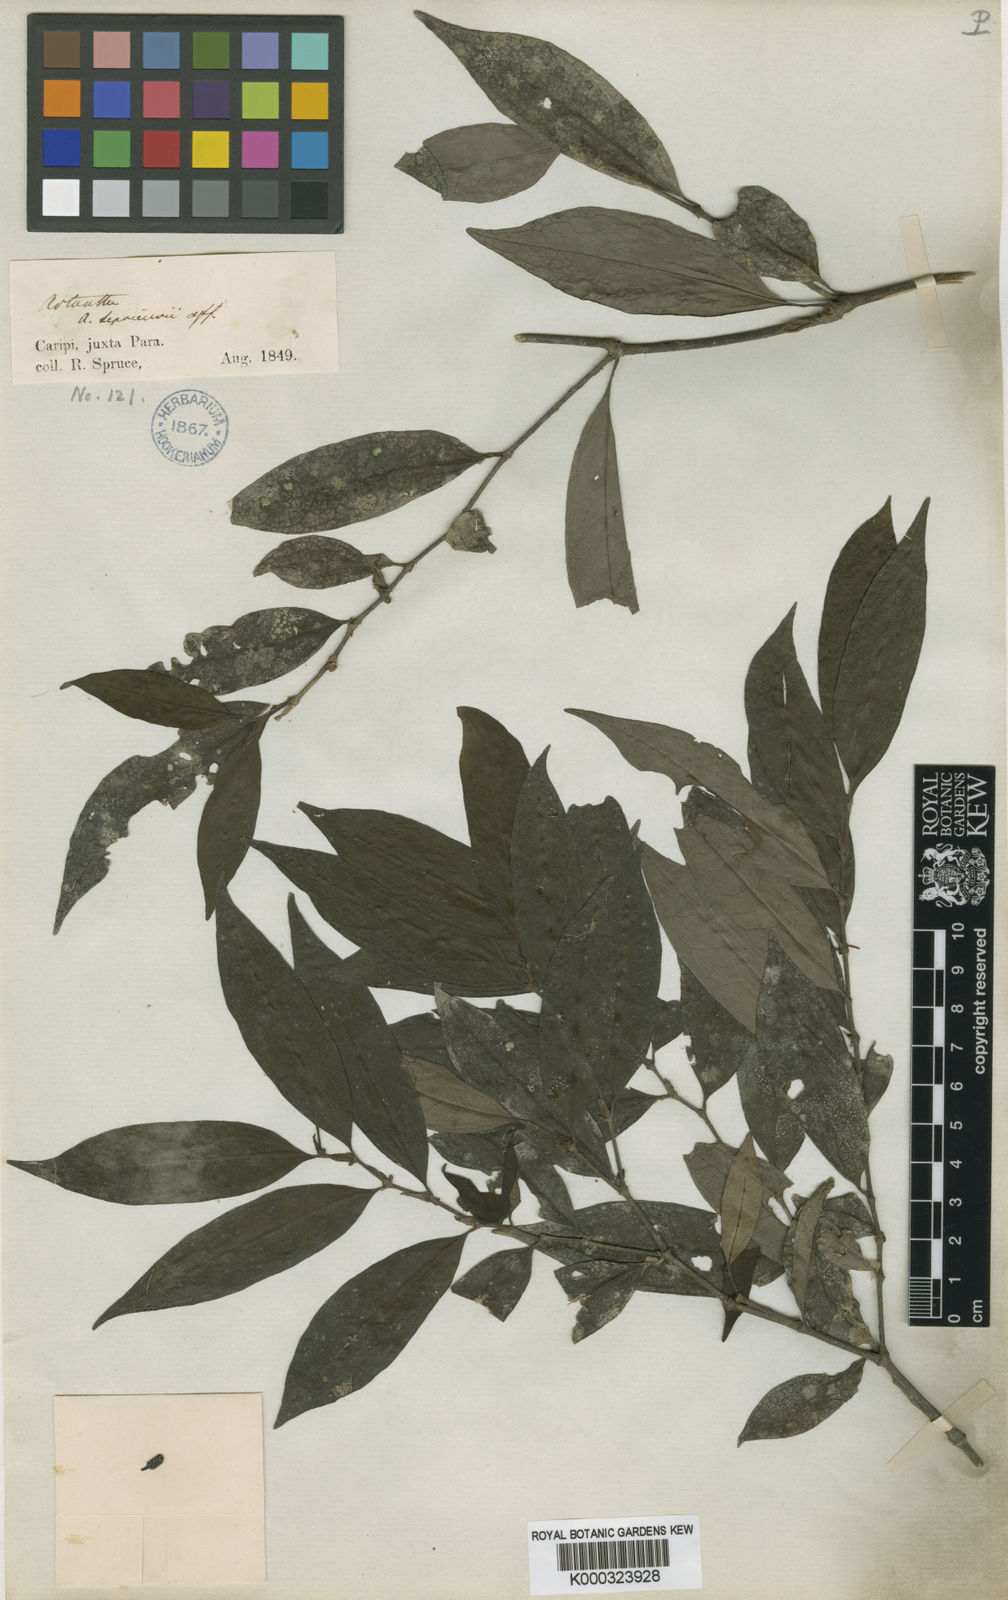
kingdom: Plantae
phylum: Tracheophyta
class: Magnoliopsida
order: Piperales
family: Piperaceae
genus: Piper
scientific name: Piper consanguineum
